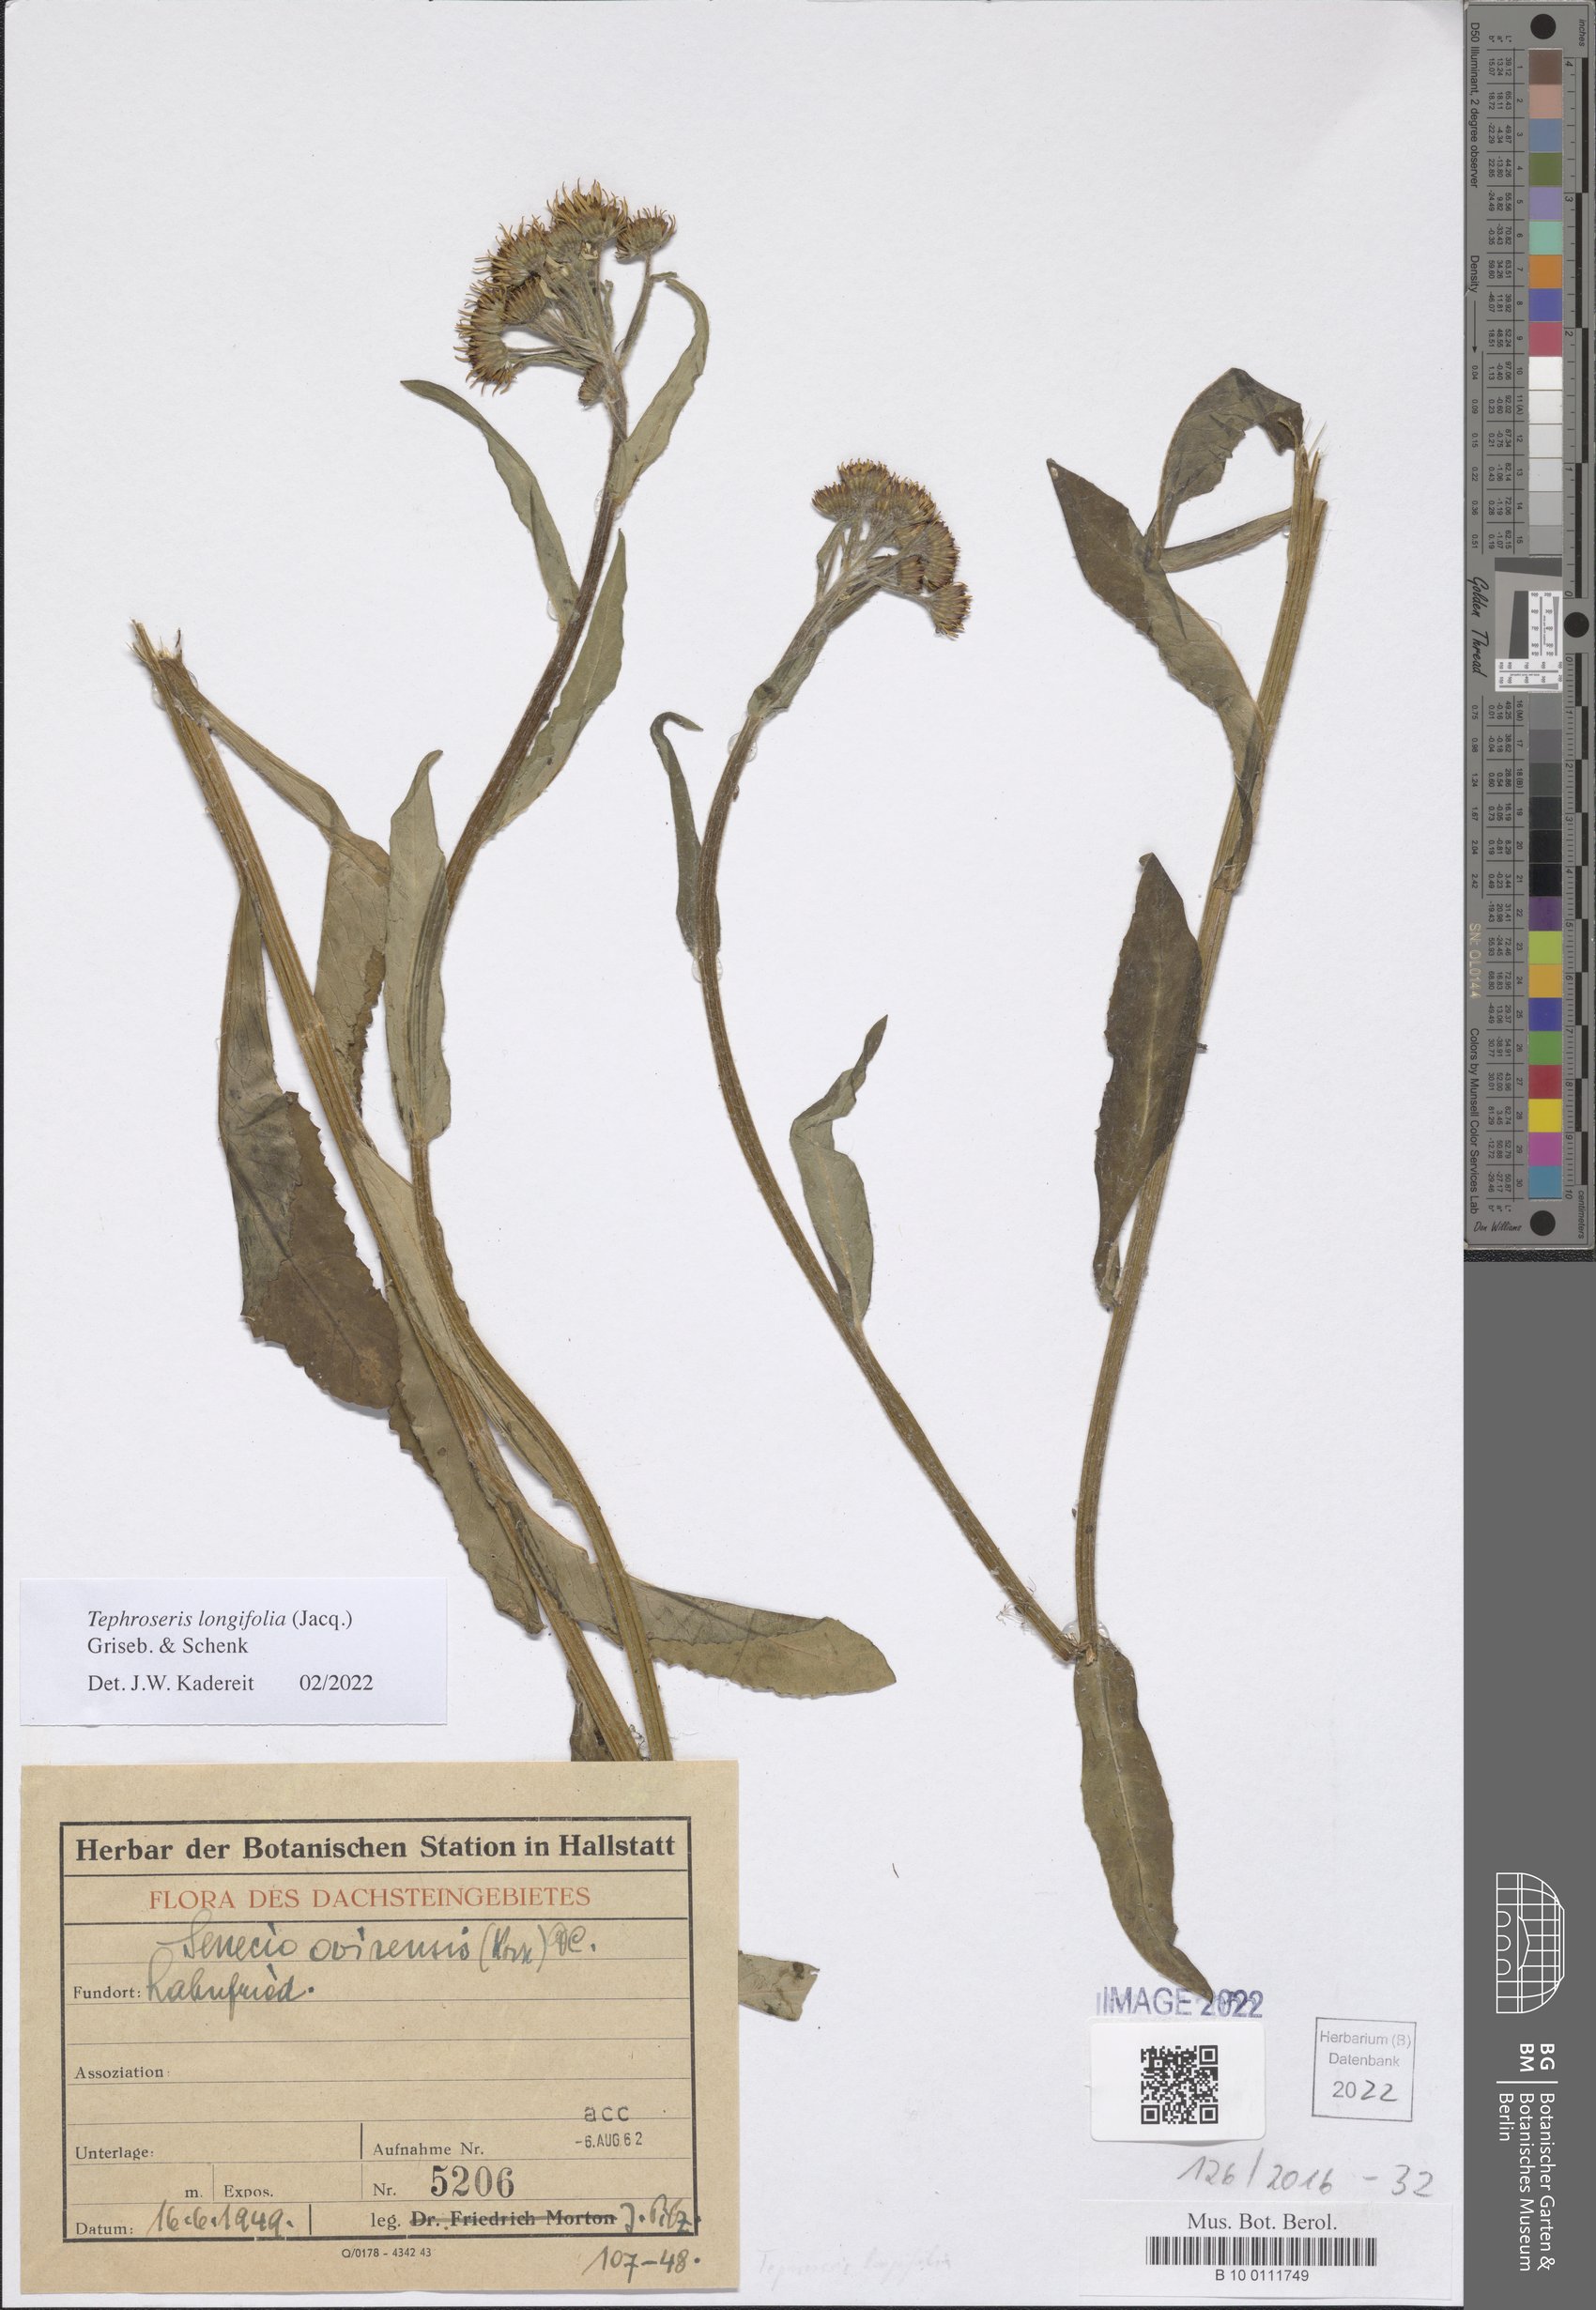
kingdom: Plantae
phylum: Tracheophyta
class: Magnoliopsida
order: Asterales
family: Asteraceae
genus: Tephroseris
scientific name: Tephroseris longifolia
